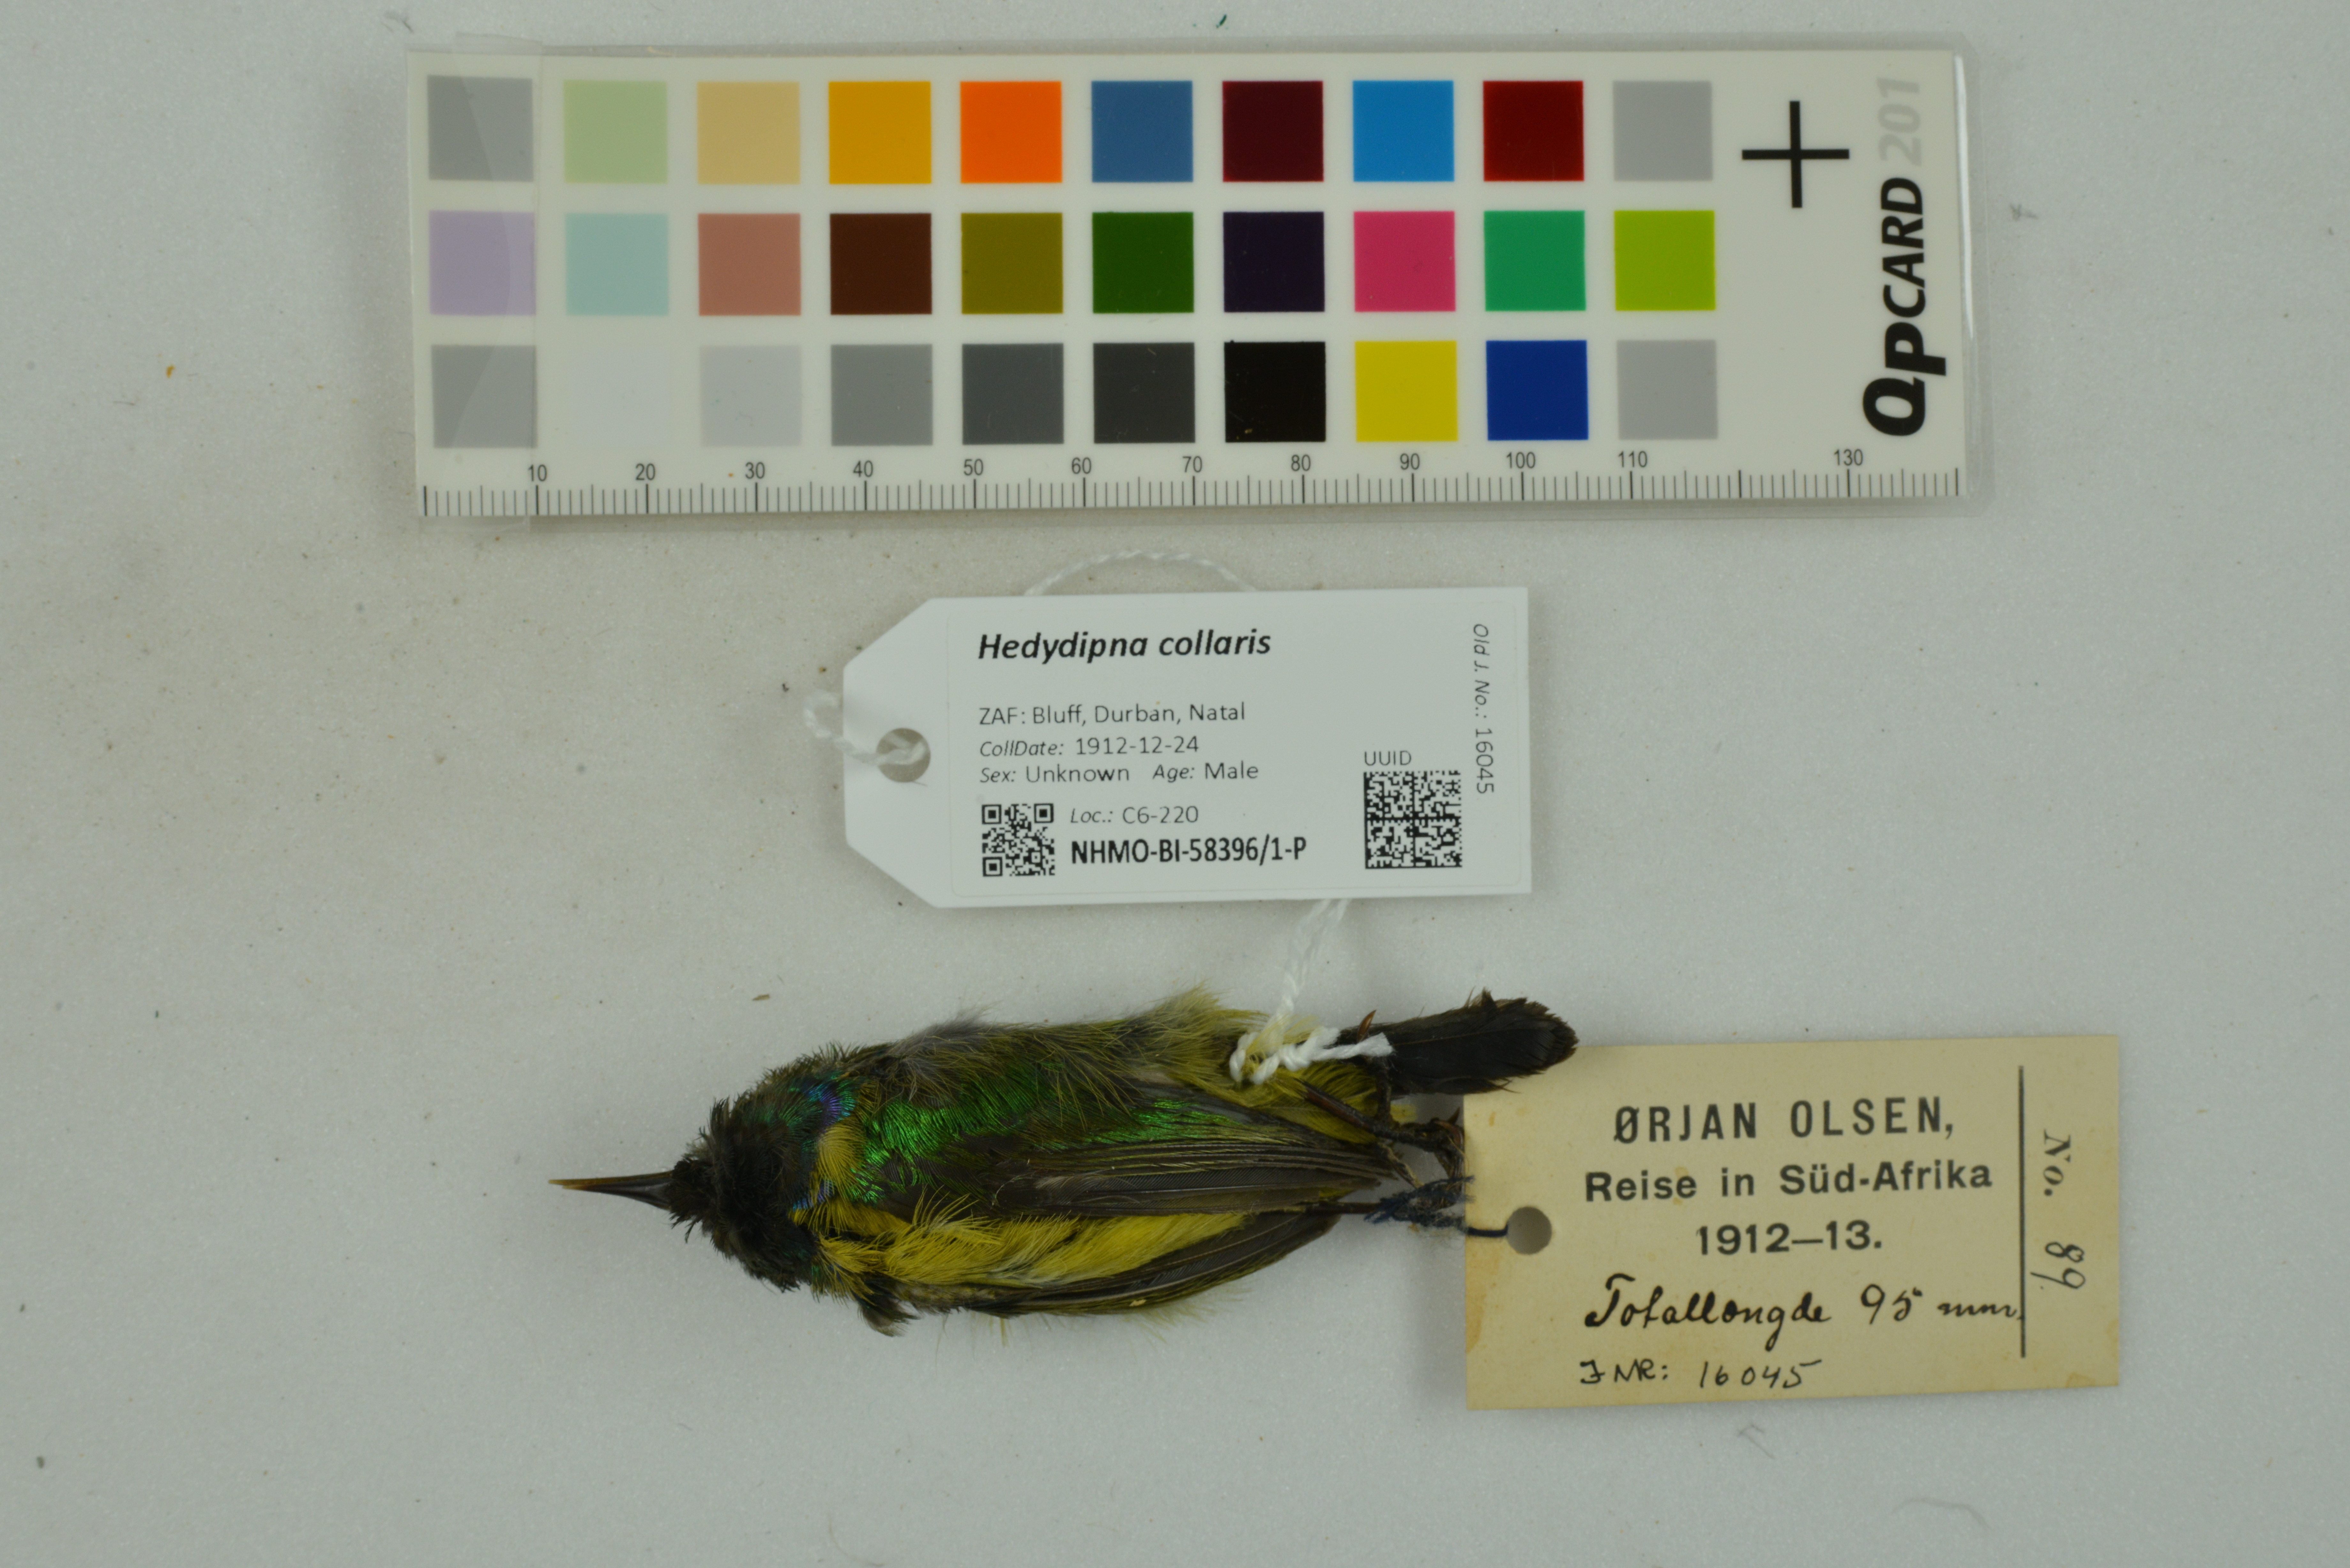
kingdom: Animalia
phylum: Chordata
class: Aves
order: Passeriformes
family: Nectariniidae
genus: Hedydipna
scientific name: Hedydipna collaris
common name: Collared sunbird
